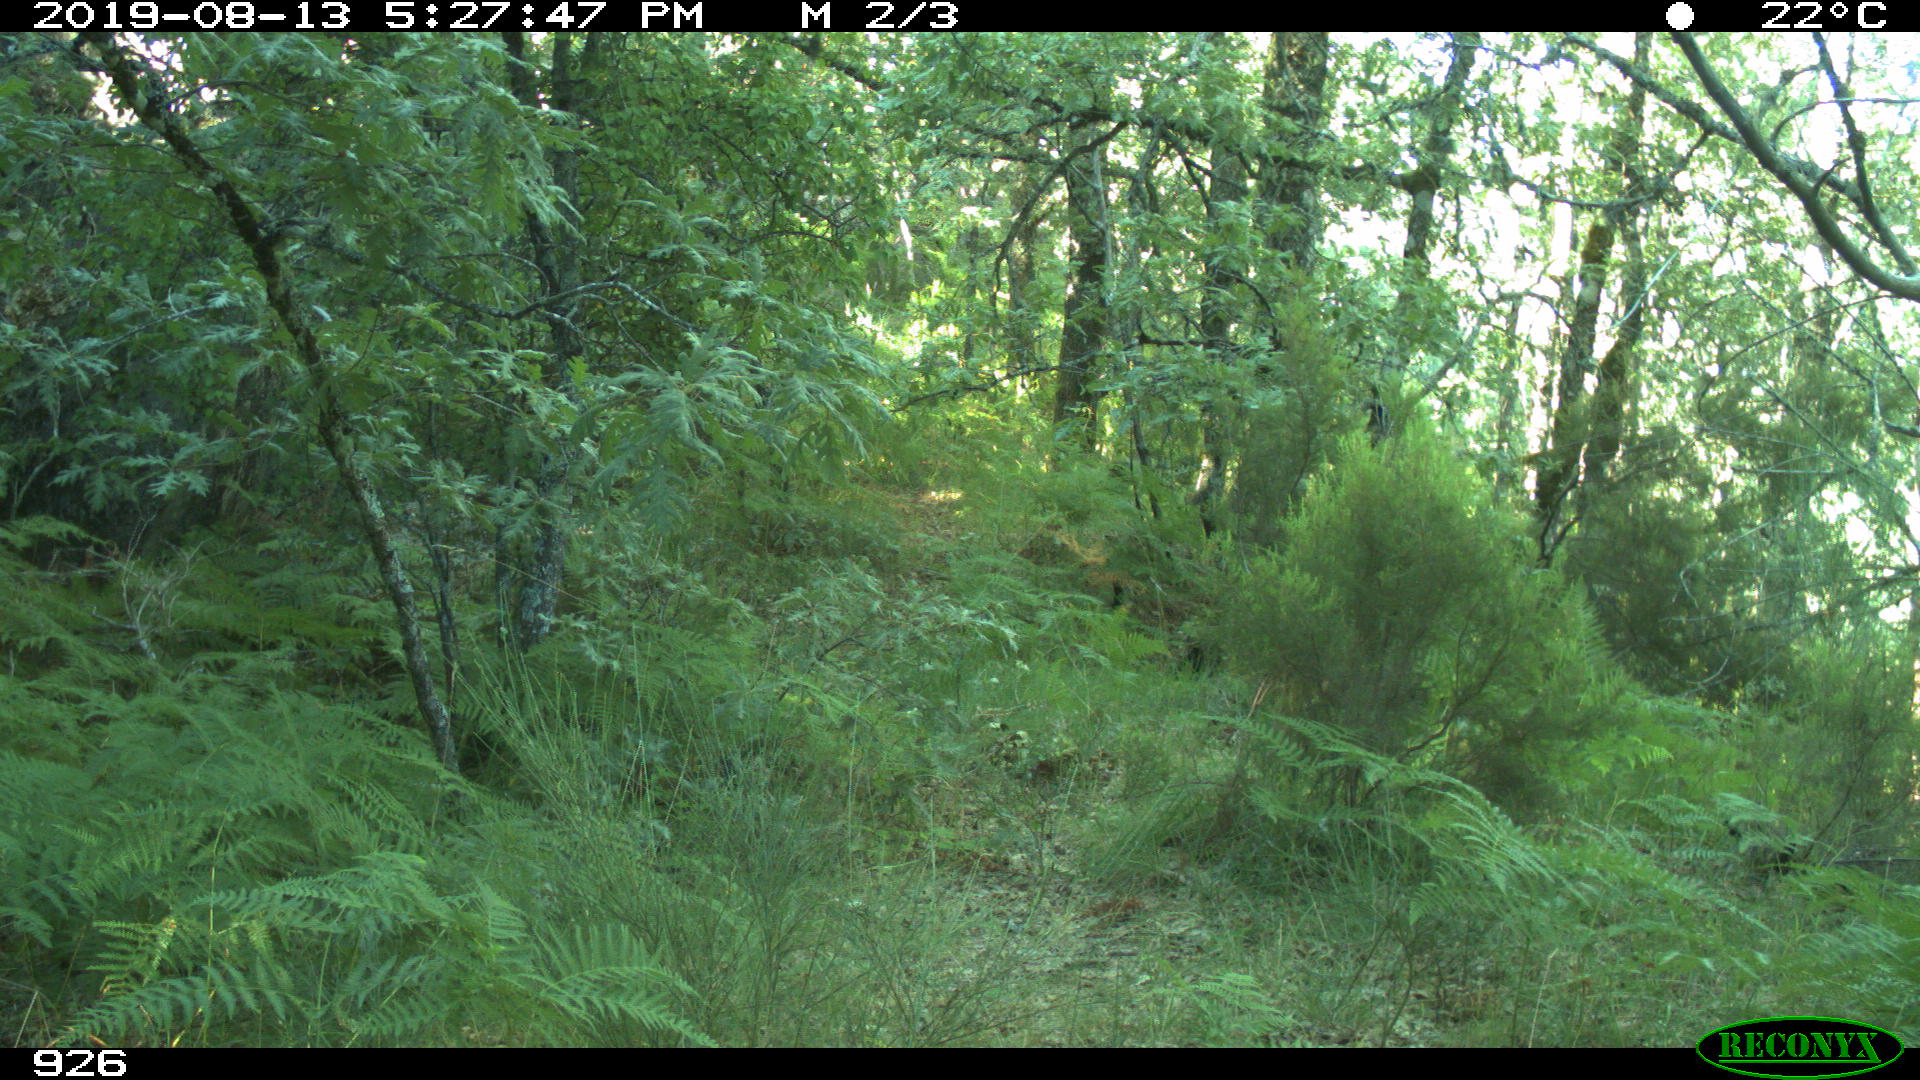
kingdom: Animalia
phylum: Chordata
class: Mammalia
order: Artiodactyla
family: Suidae
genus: Sus
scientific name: Sus scrofa
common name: Wild boar
